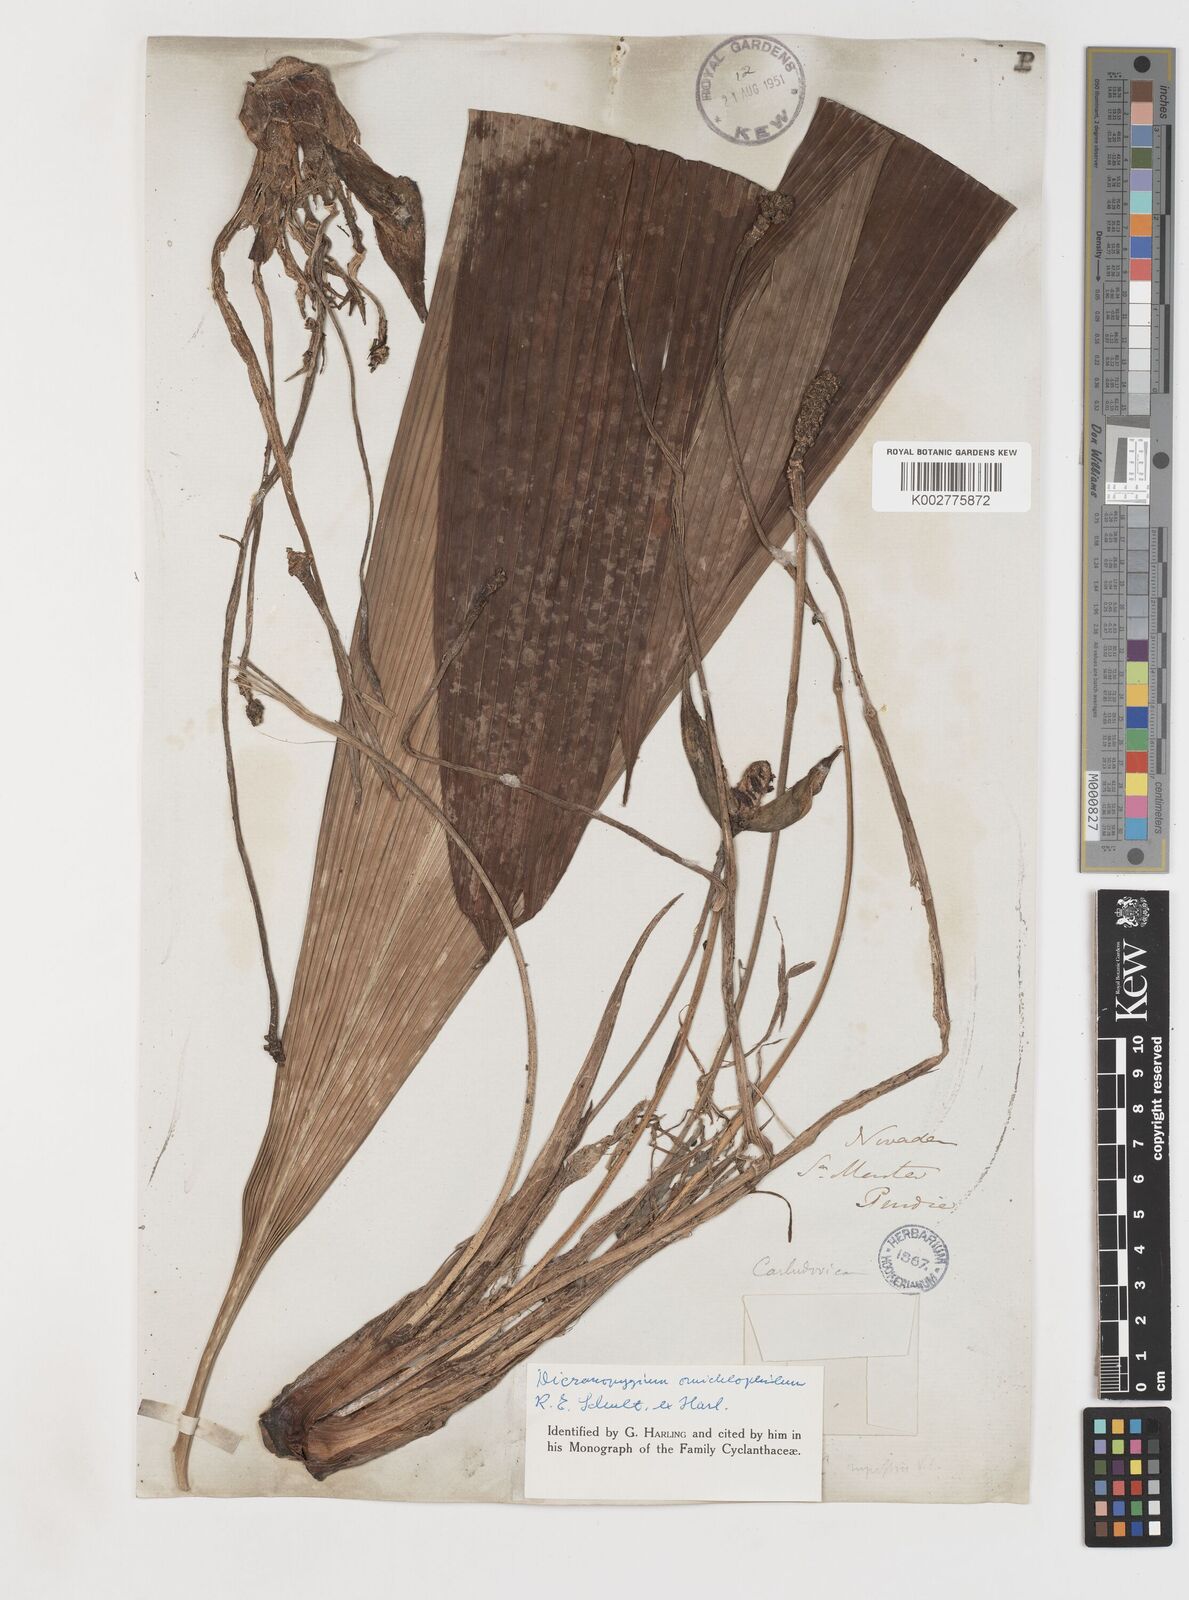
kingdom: Plantae
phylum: Tracheophyta
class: Liliopsida
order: Pandanales
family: Cyclanthaceae
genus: Dicranopygium
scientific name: Dicranopygium omichlophilum
